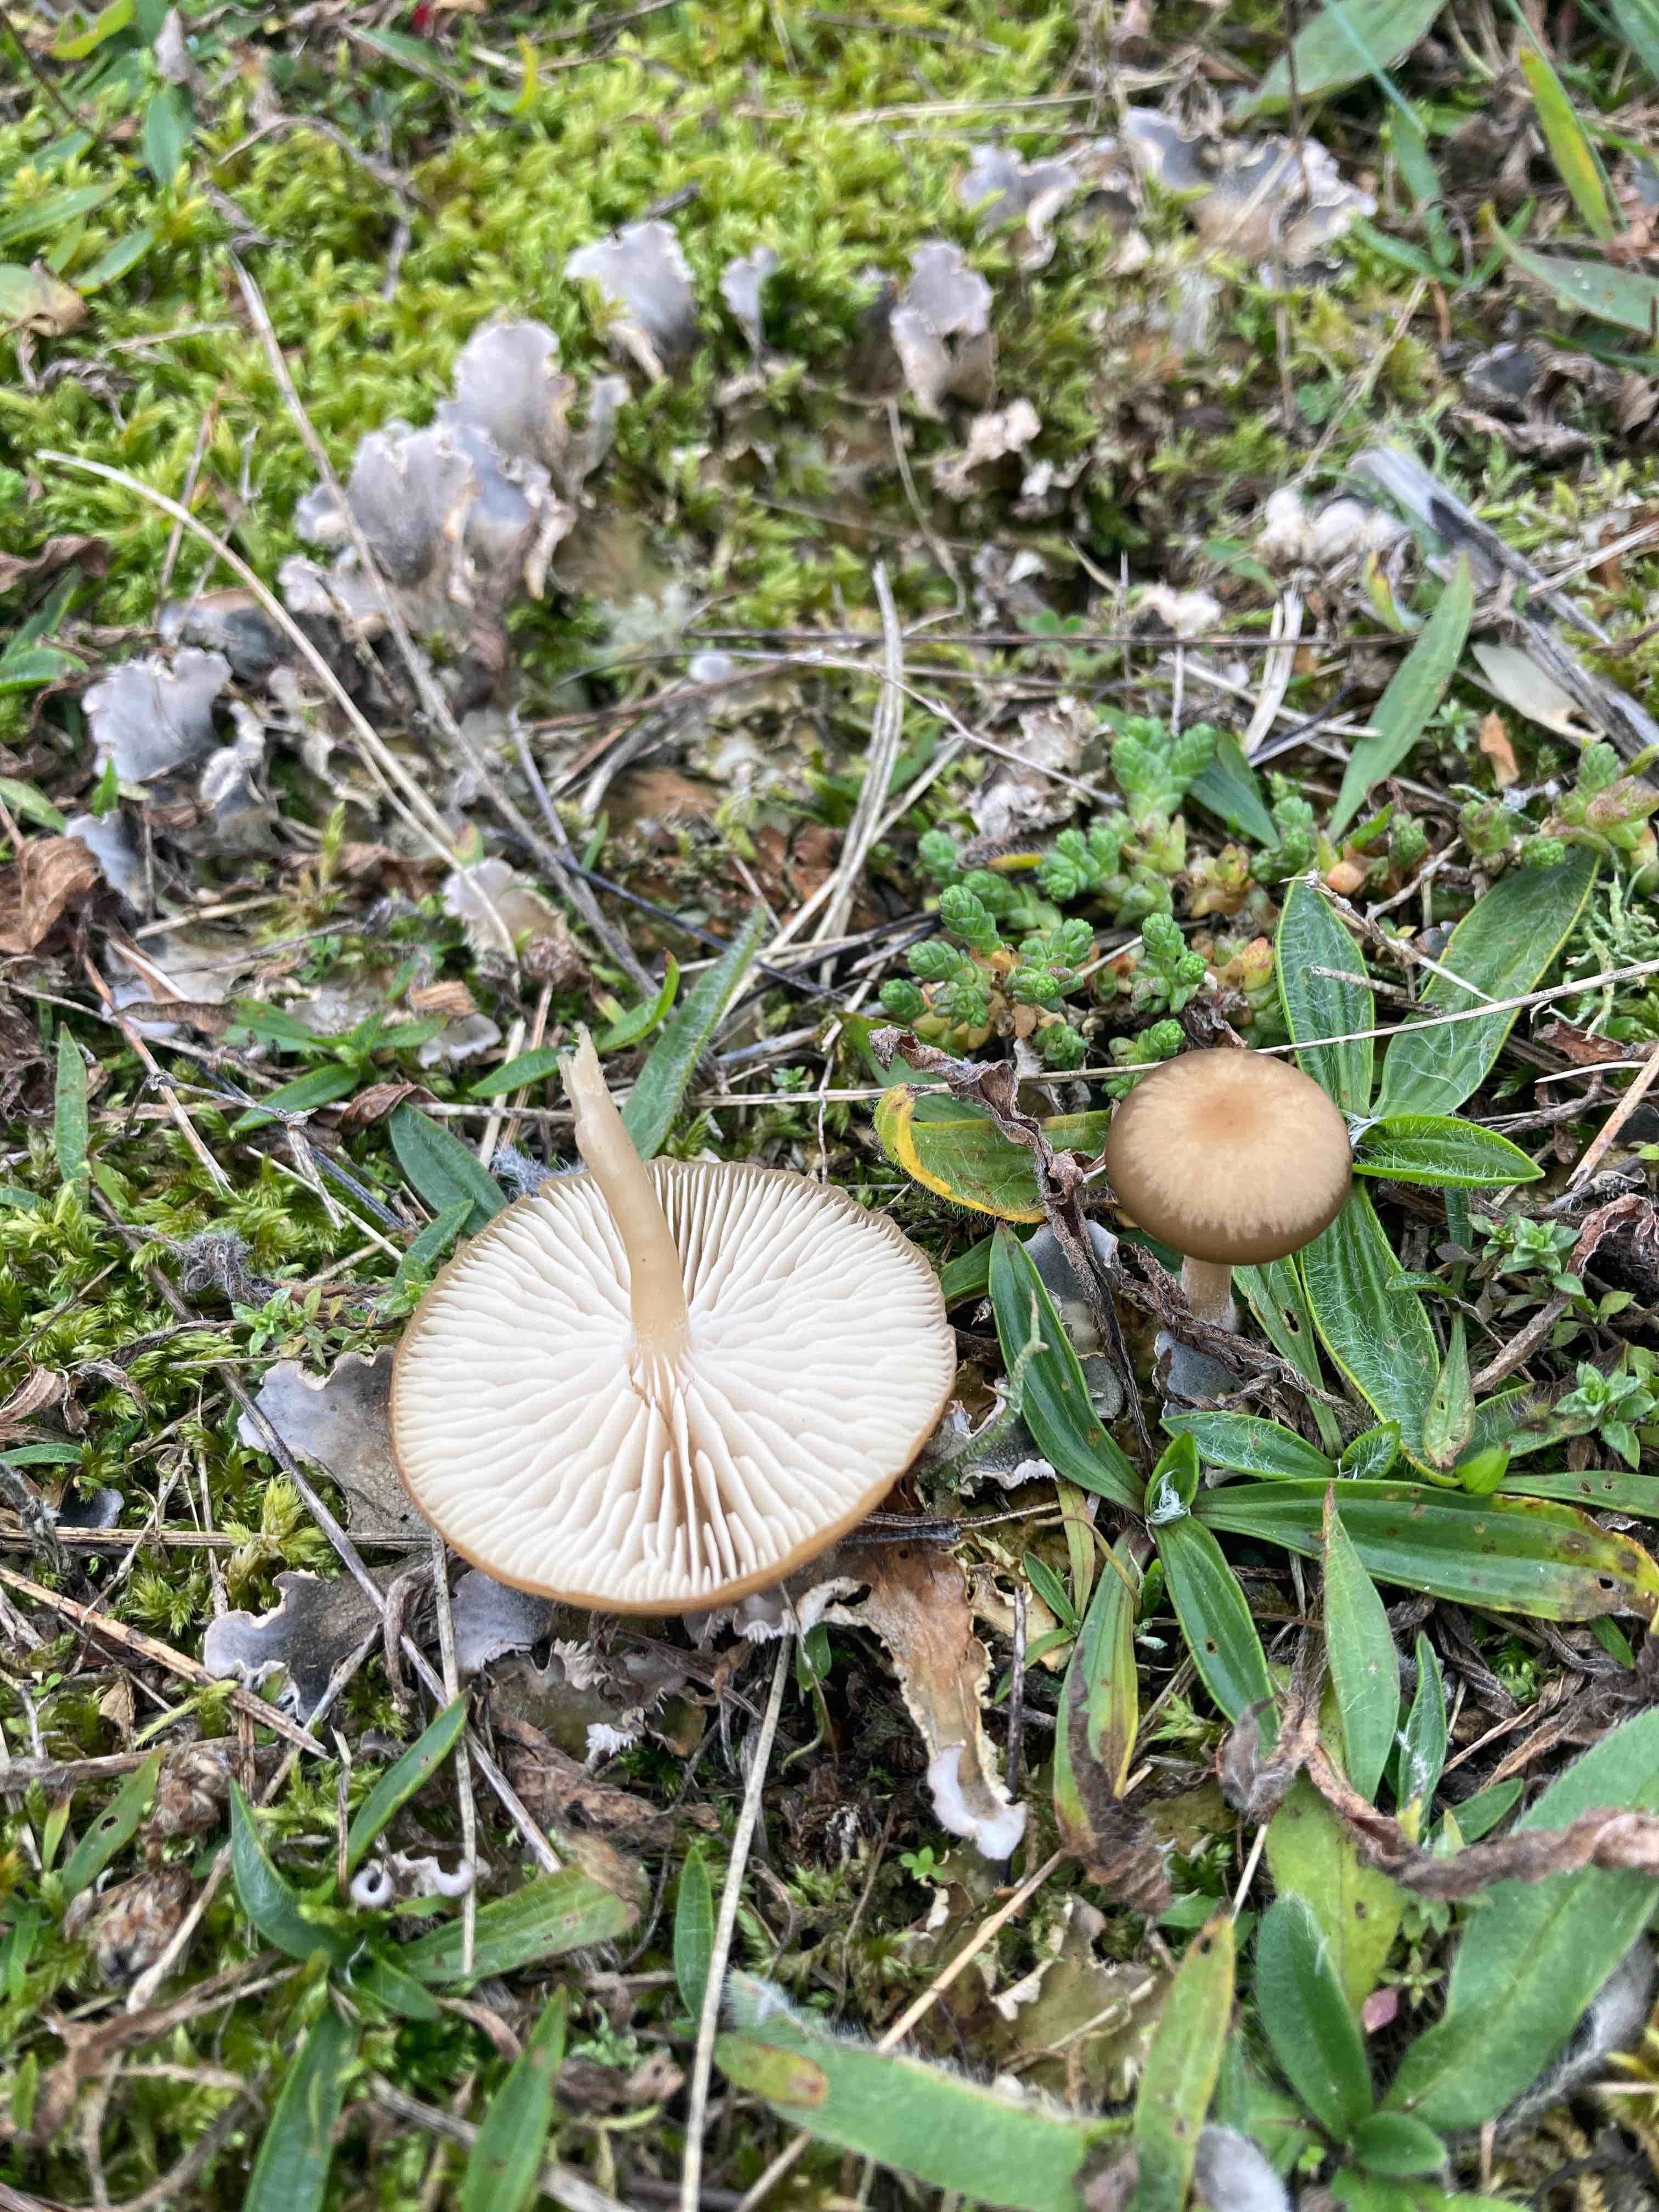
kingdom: Fungi
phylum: Basidiomycota
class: Agaricomycetes
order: Agaricales
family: Tricholomataceae
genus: Gamundia
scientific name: Gamundia xerophila
